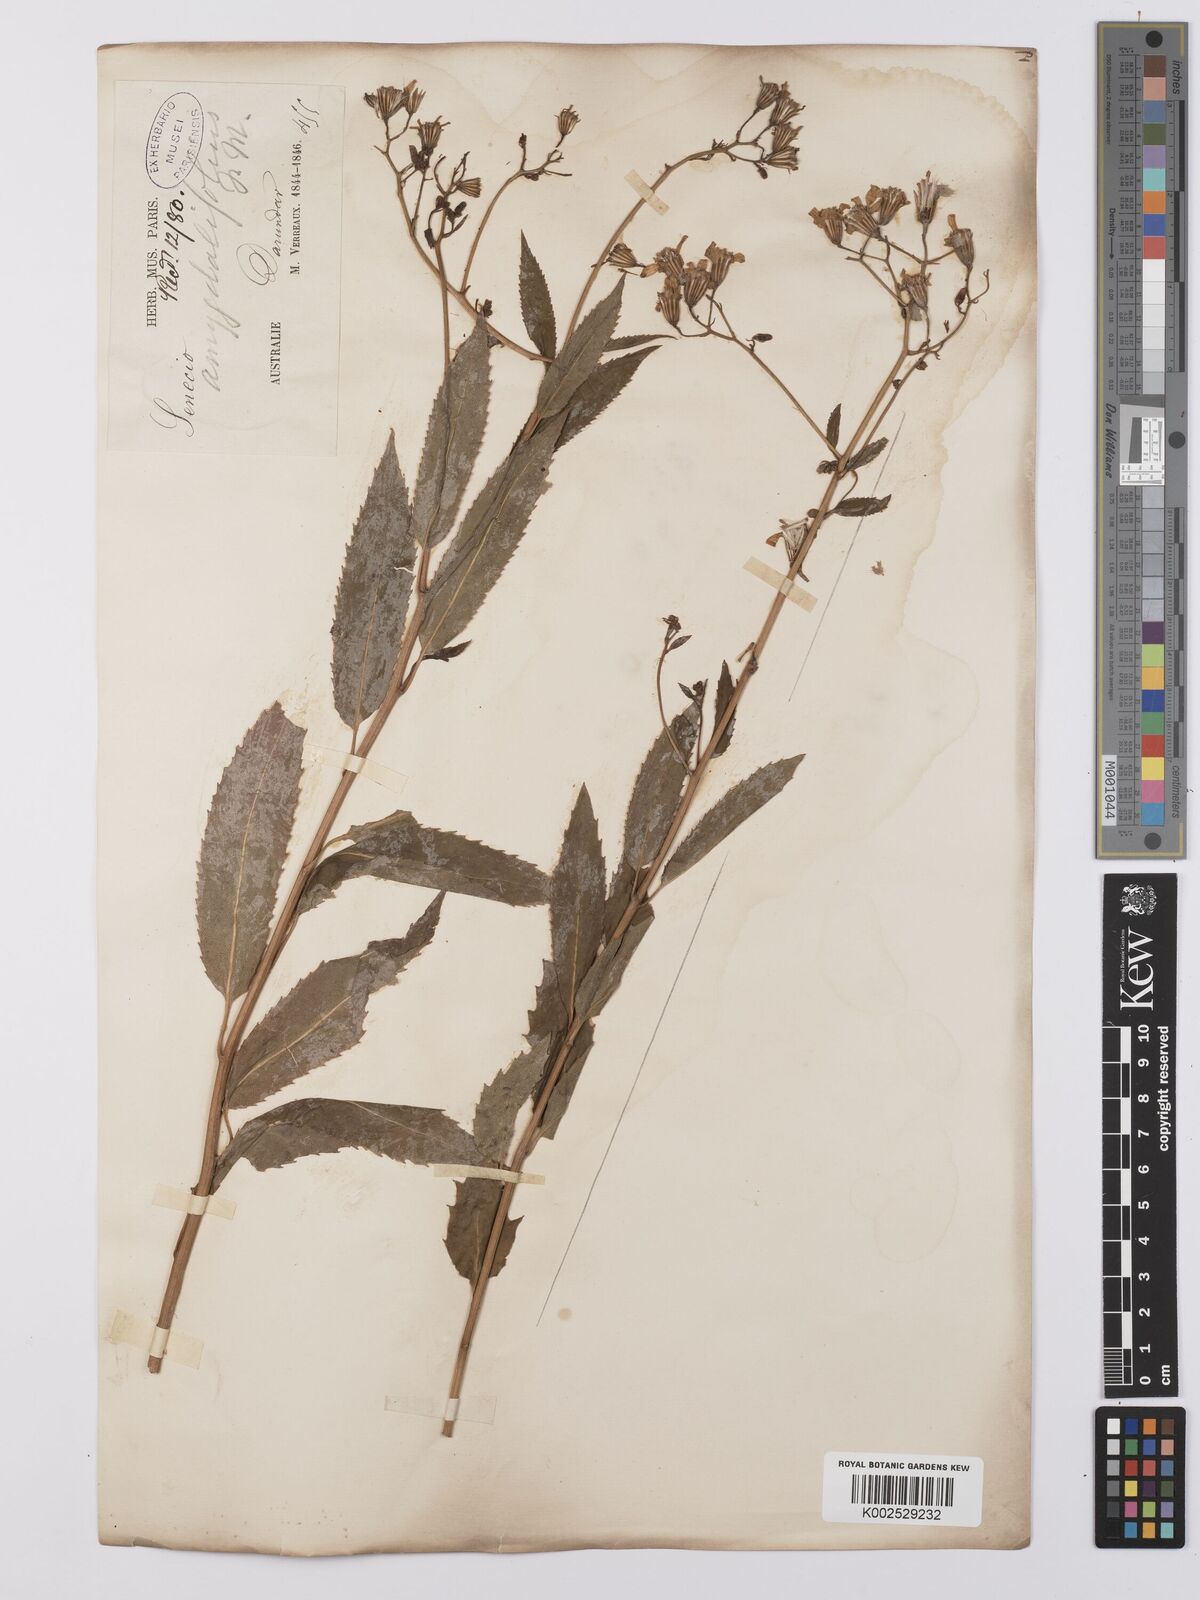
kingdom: Plantae
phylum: Tracheophyta
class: Magnoliopsida
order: Asterales
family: Asteraceae
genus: Lordhowea
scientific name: Lordhowea amygdalifolia
